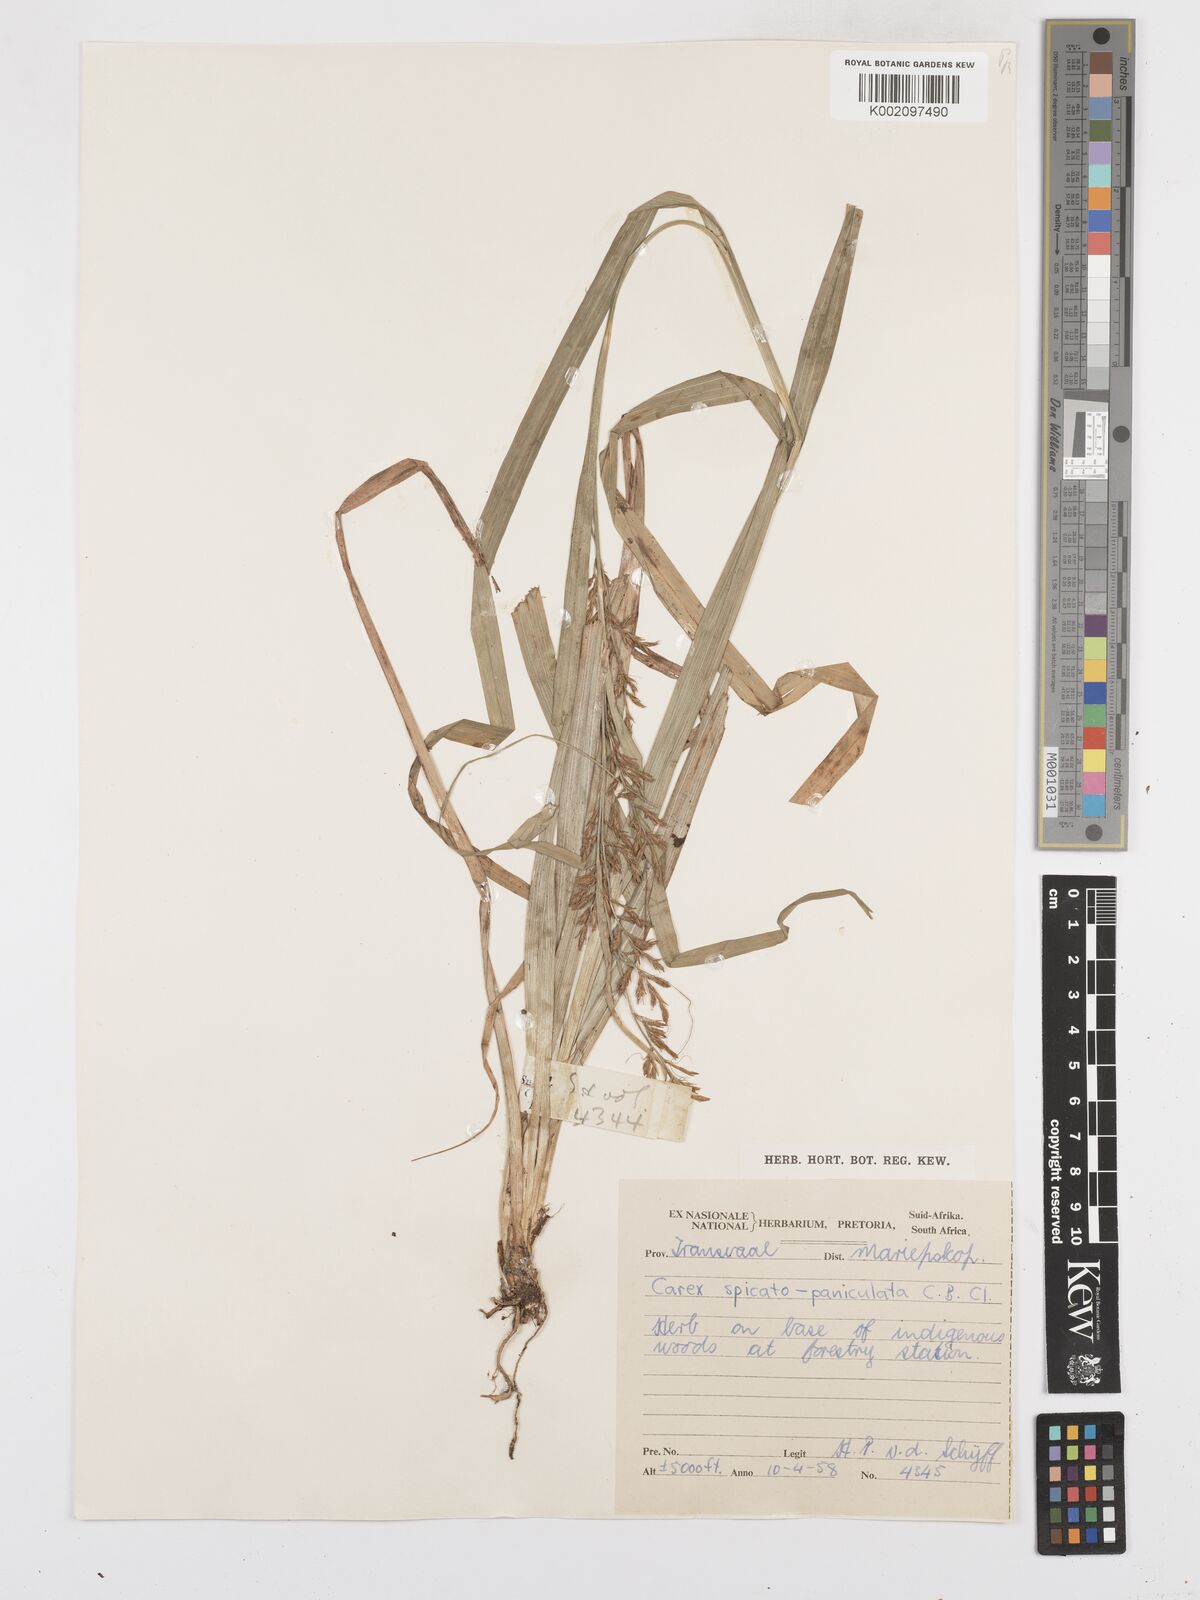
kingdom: Plantae
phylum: Tracheophyta
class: Liliopsida
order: Poales
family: Cyperaceae
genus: Carex
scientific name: Carex spicatopaniculata
